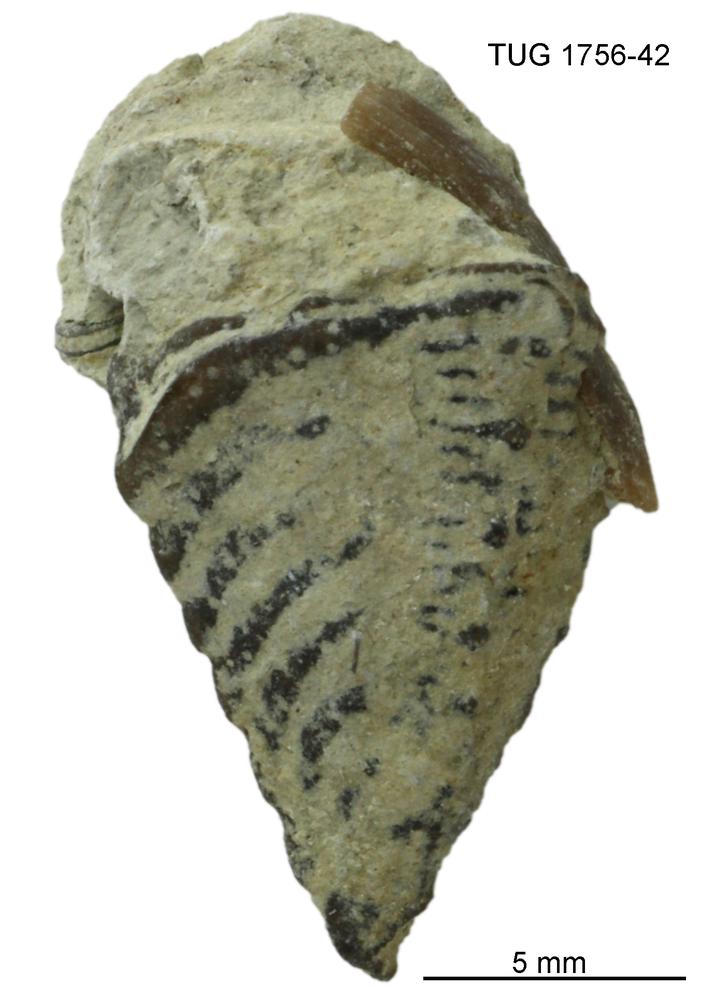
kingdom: Animalia
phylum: Arthropoda
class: Trilobita
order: Phacopida
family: Encrinuridae
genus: Encrinurus
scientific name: Encrinurus punctatus
